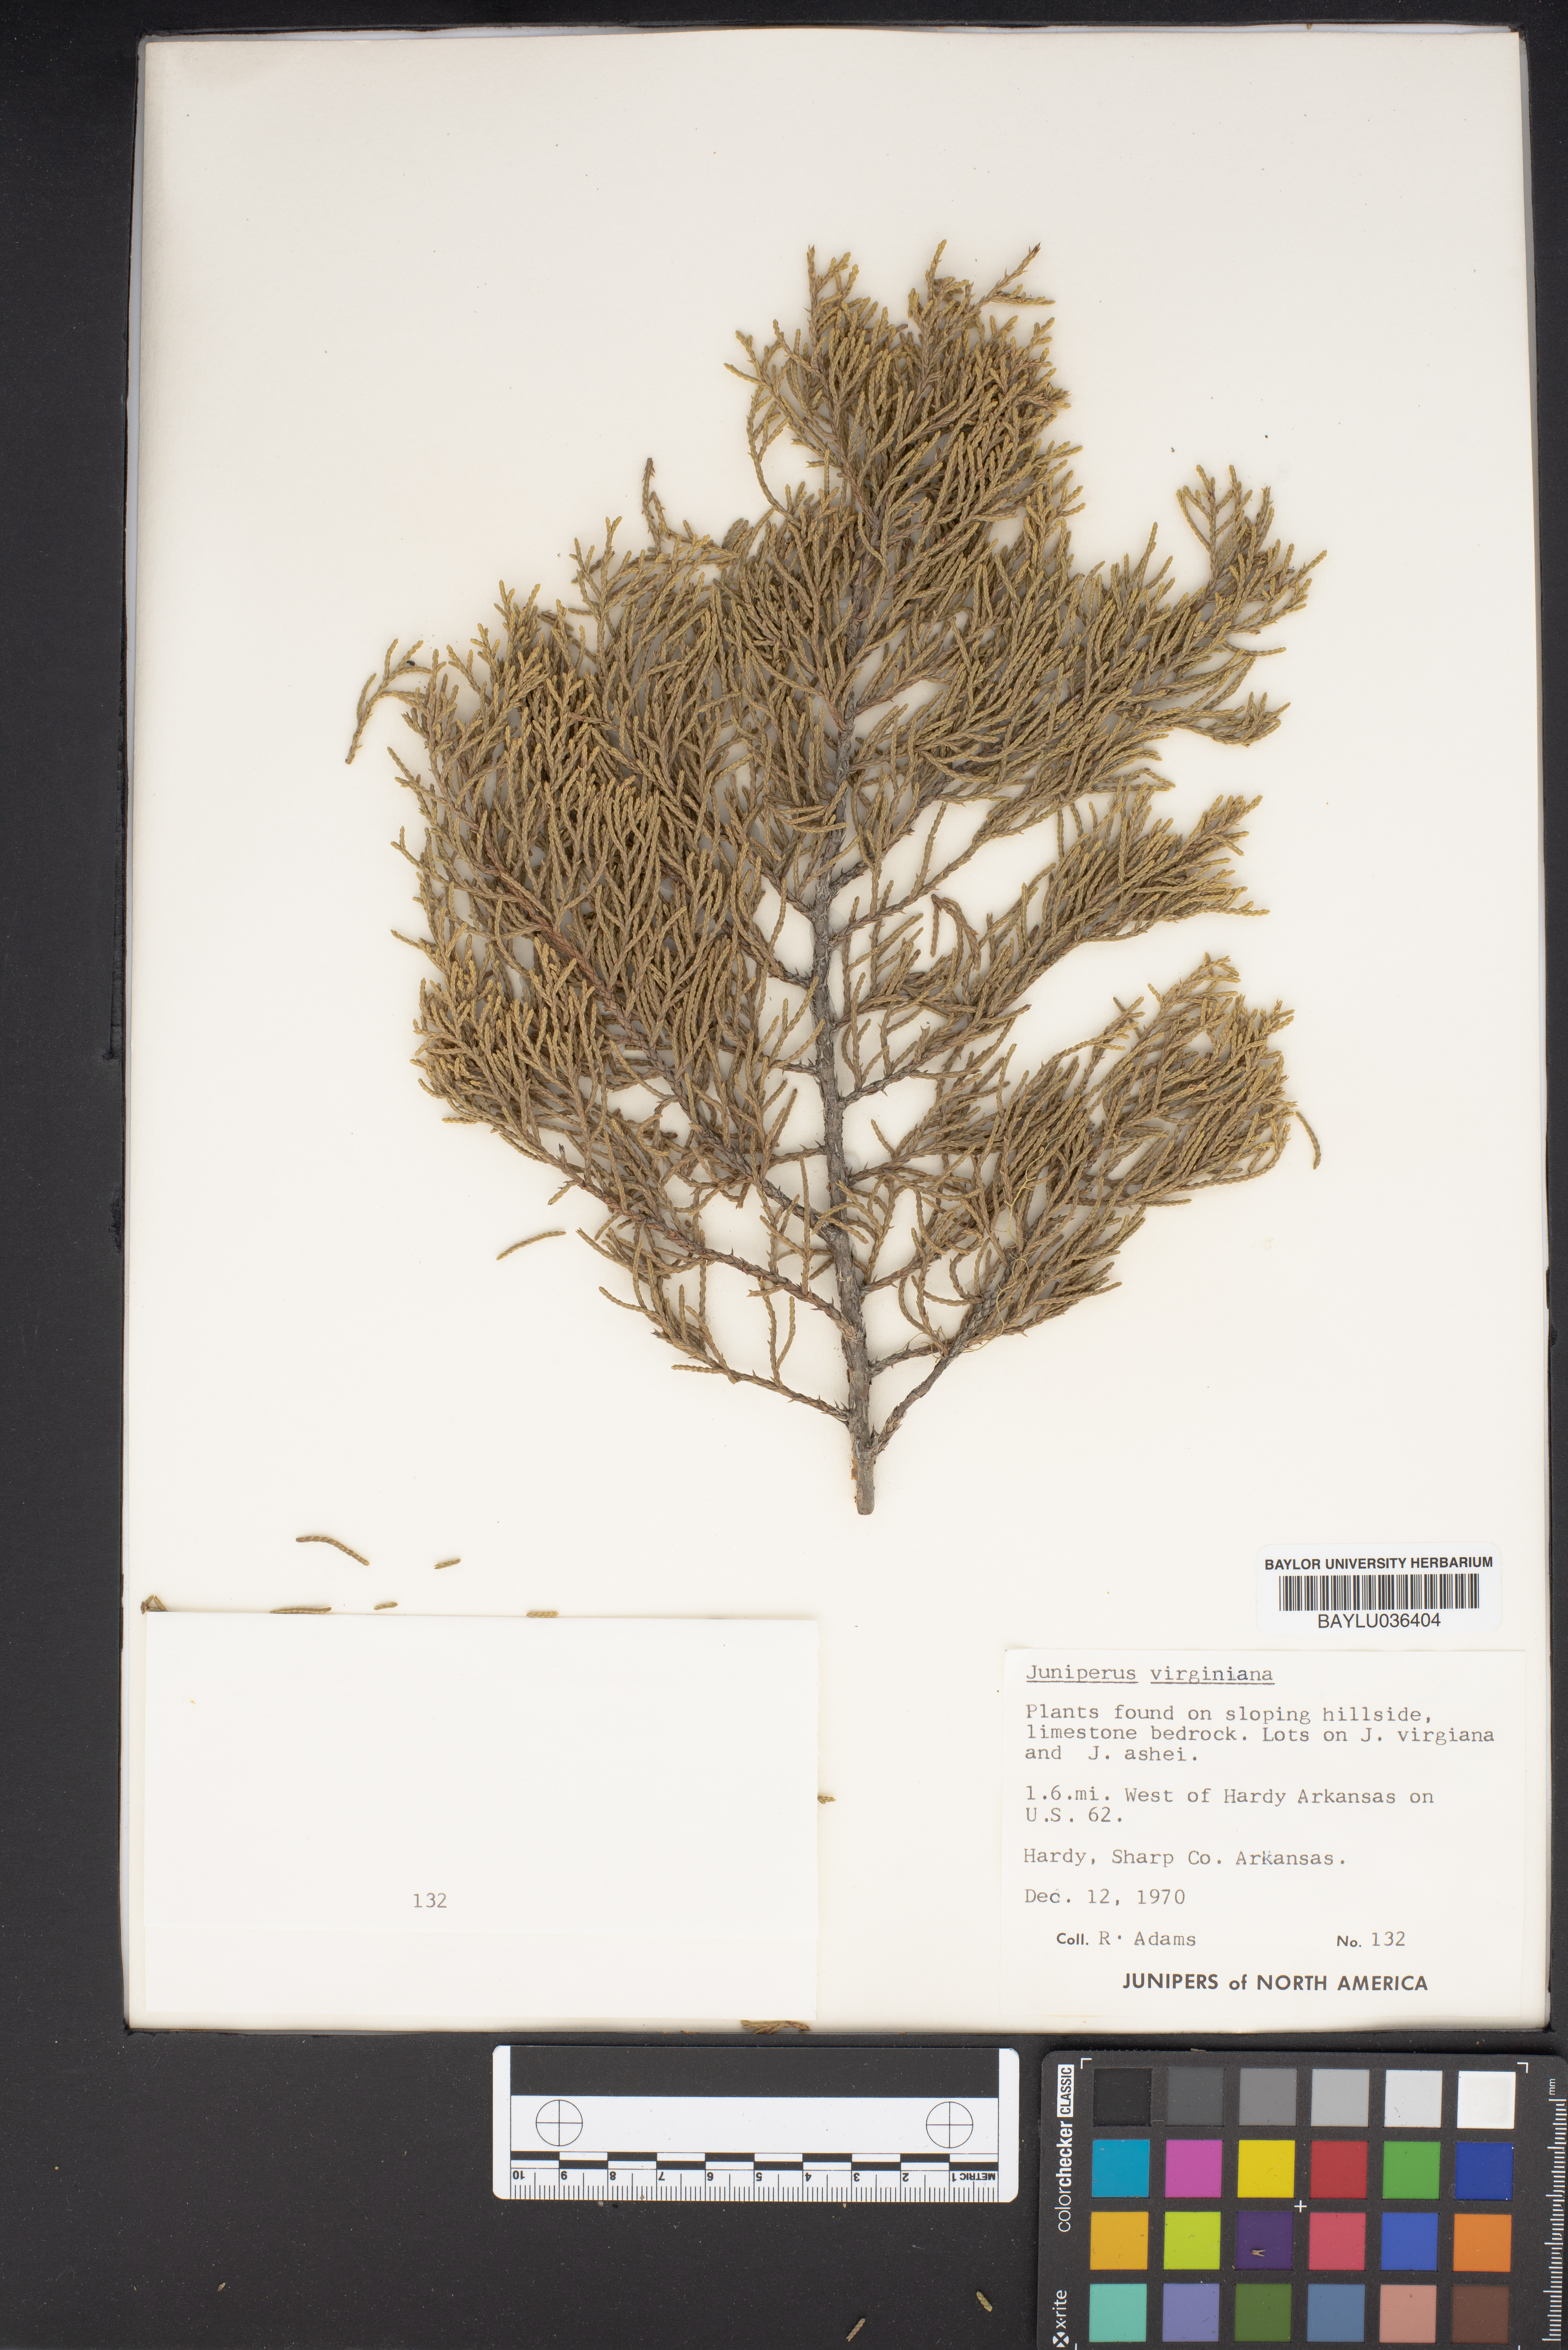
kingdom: Plantae
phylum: Tracheophyta
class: Pinopsida
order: Pinales
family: Cupressaceae
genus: Juniperus
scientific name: Juniperus virginiana
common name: Red juniper
